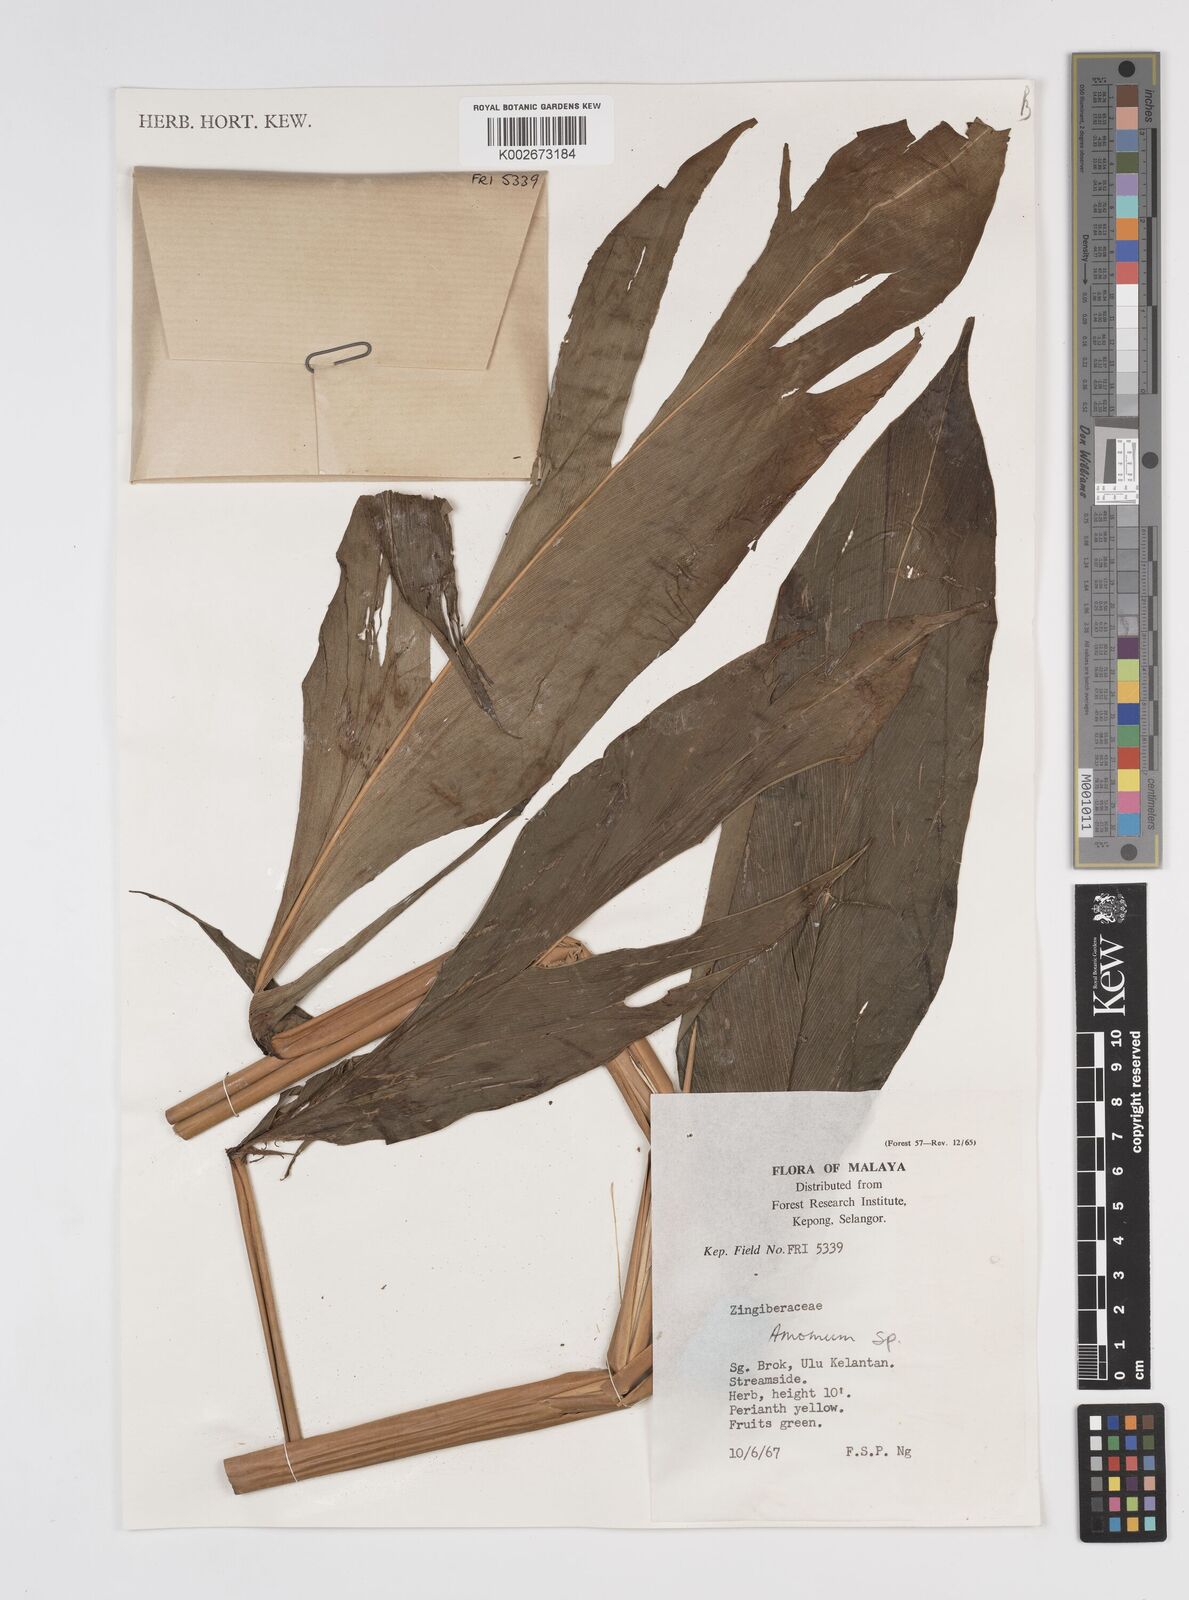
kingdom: Plantae
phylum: Tracheophyta
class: Liliopsida
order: Zingiberales
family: Zingiberaceae
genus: Meistera
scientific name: Meistera lappacea
